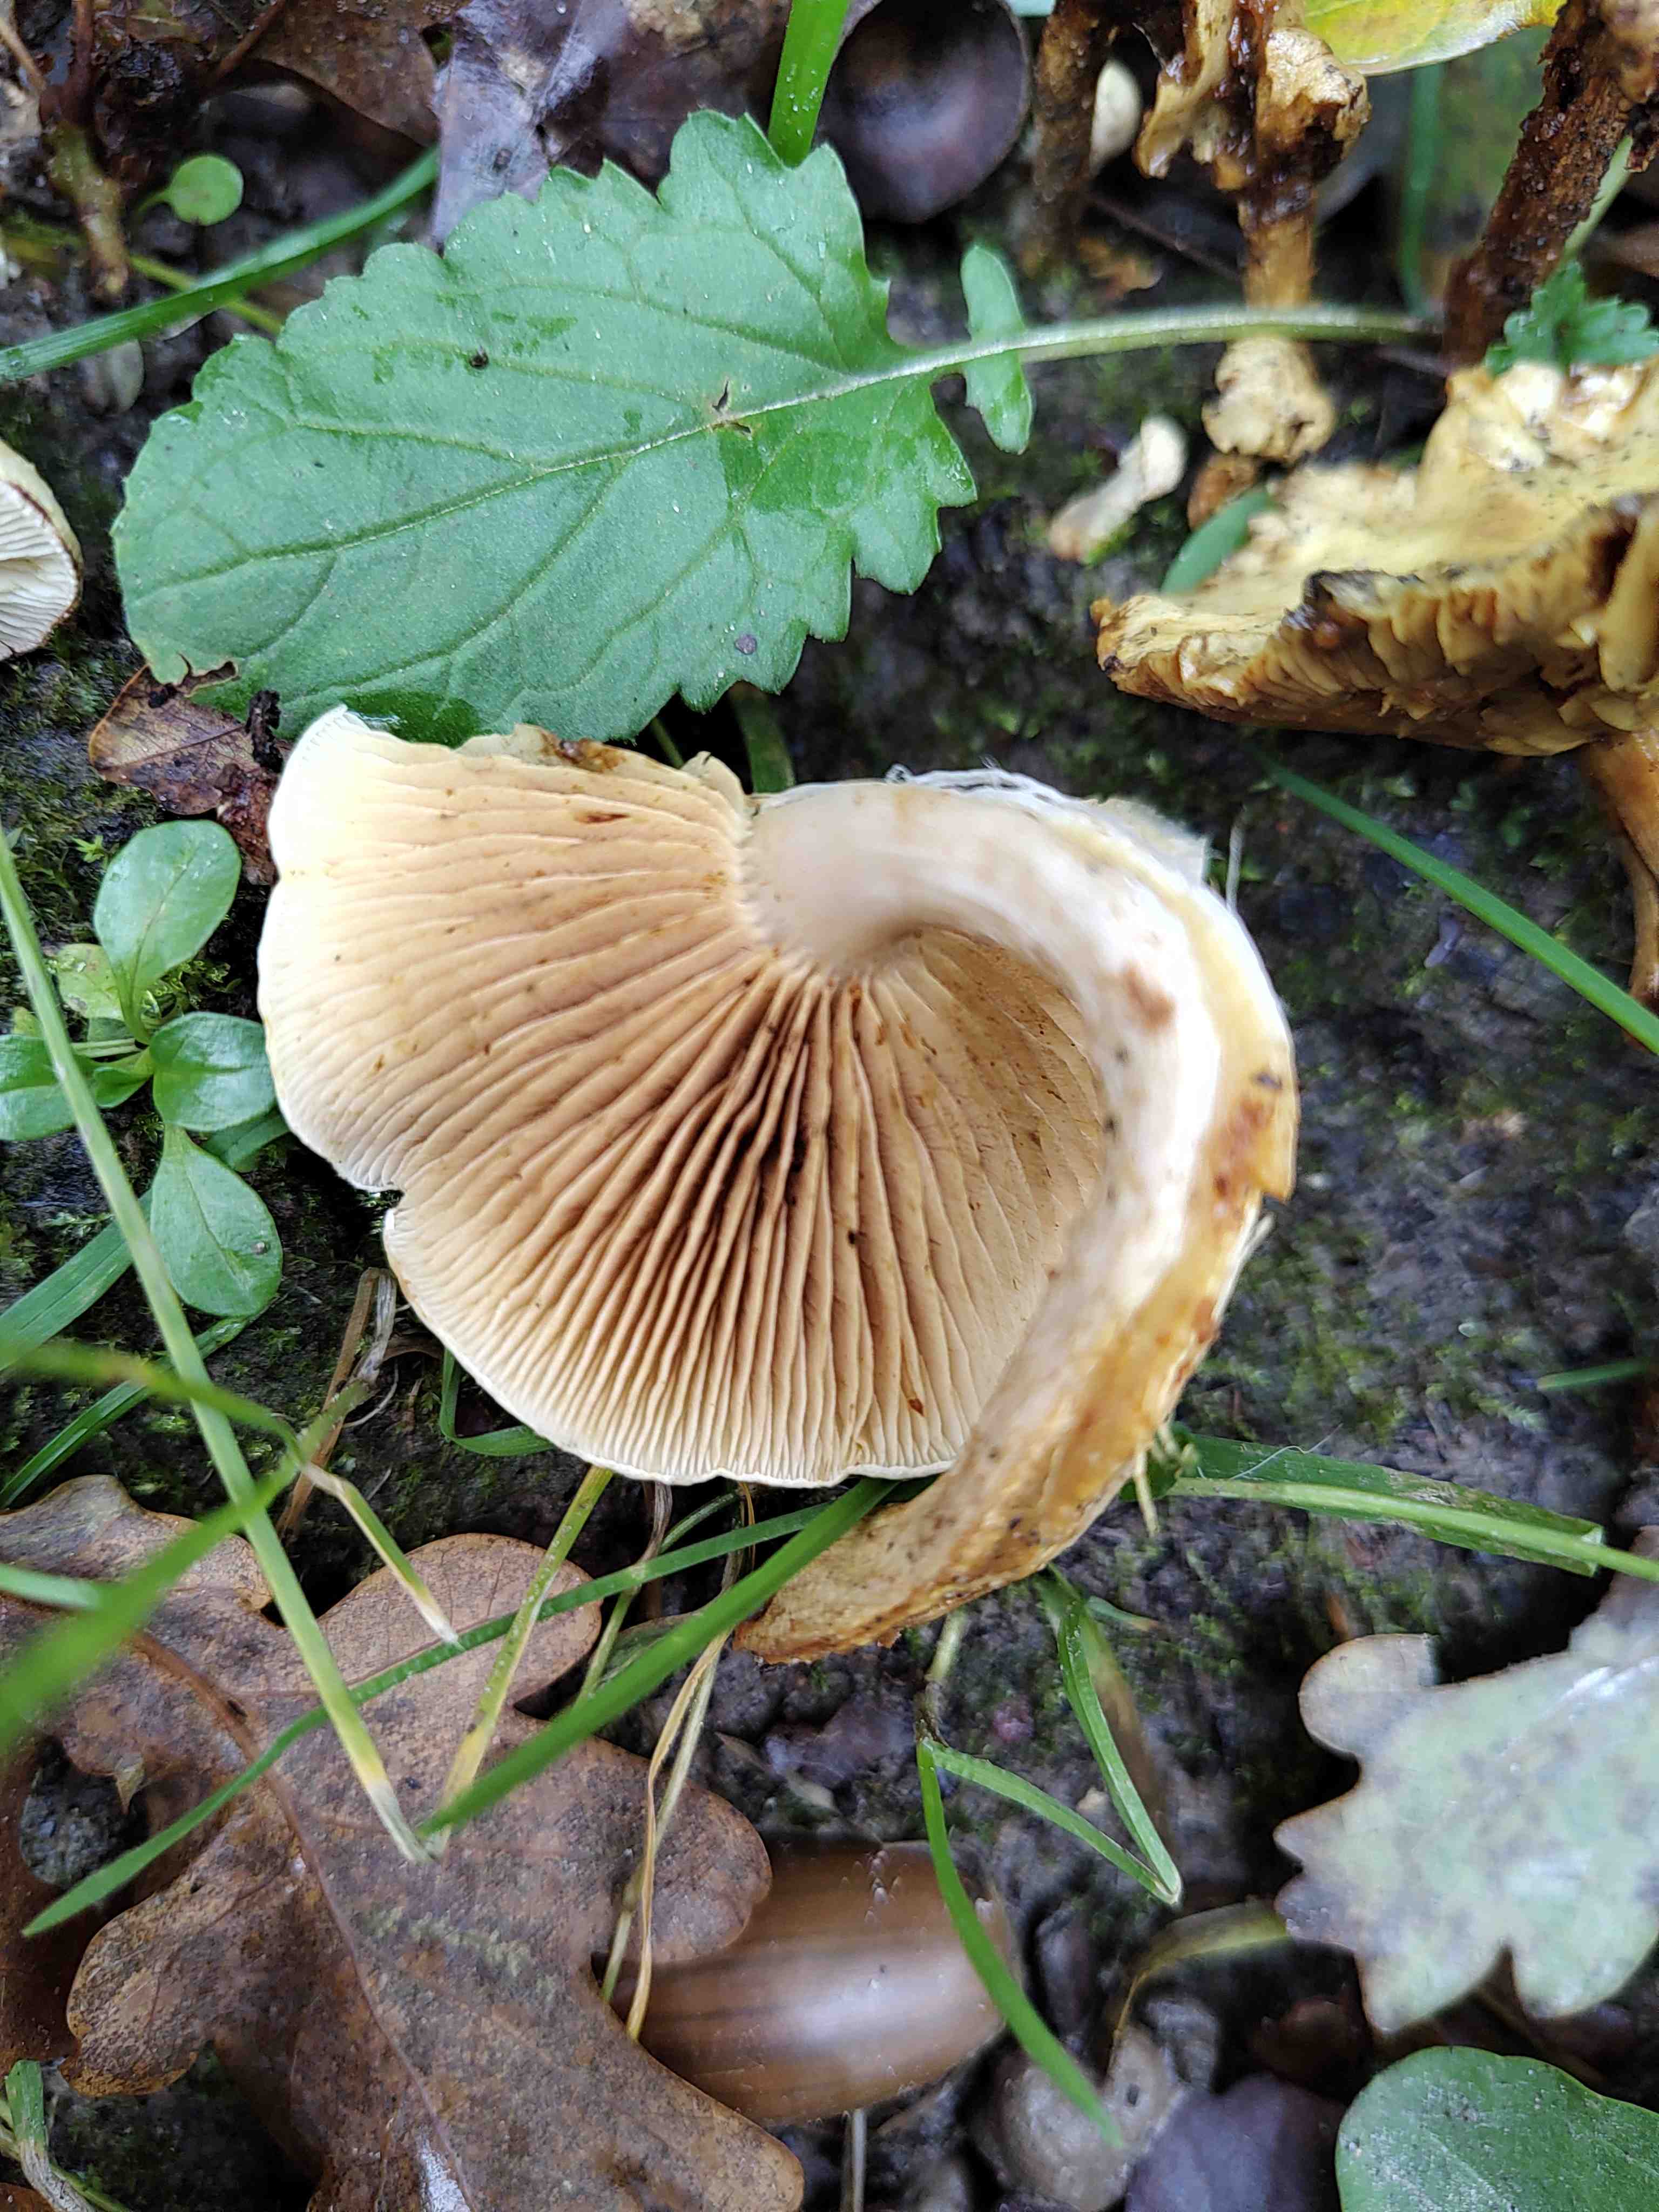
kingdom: Fungi
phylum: Basidiomycota
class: Agaricomycetes
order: Agaricales
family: Strophariaceae
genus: Pholiota
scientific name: Pholiota gummosa
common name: grøngul skælhat
